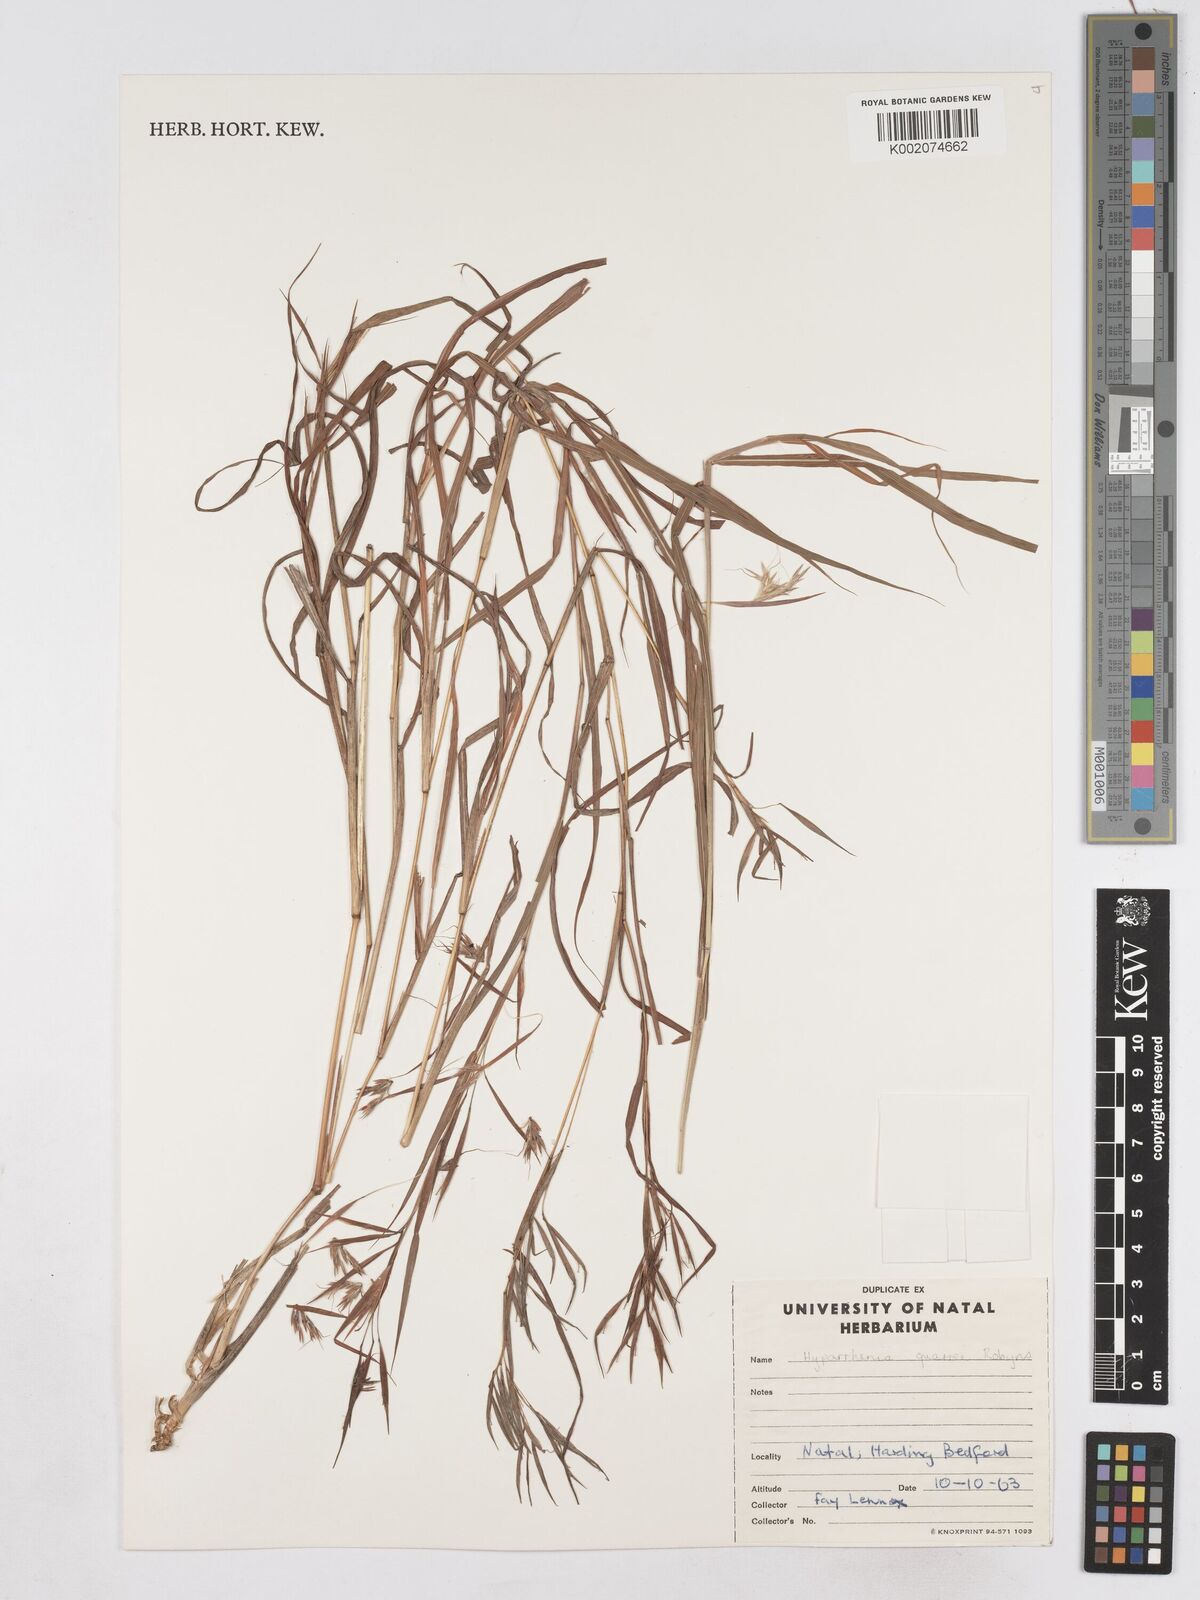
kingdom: Plantae
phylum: Tracheophyta
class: Liliopsida
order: Poales
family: Poaceae
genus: Hyparrhenia
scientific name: Hyparrhenia quarrei
